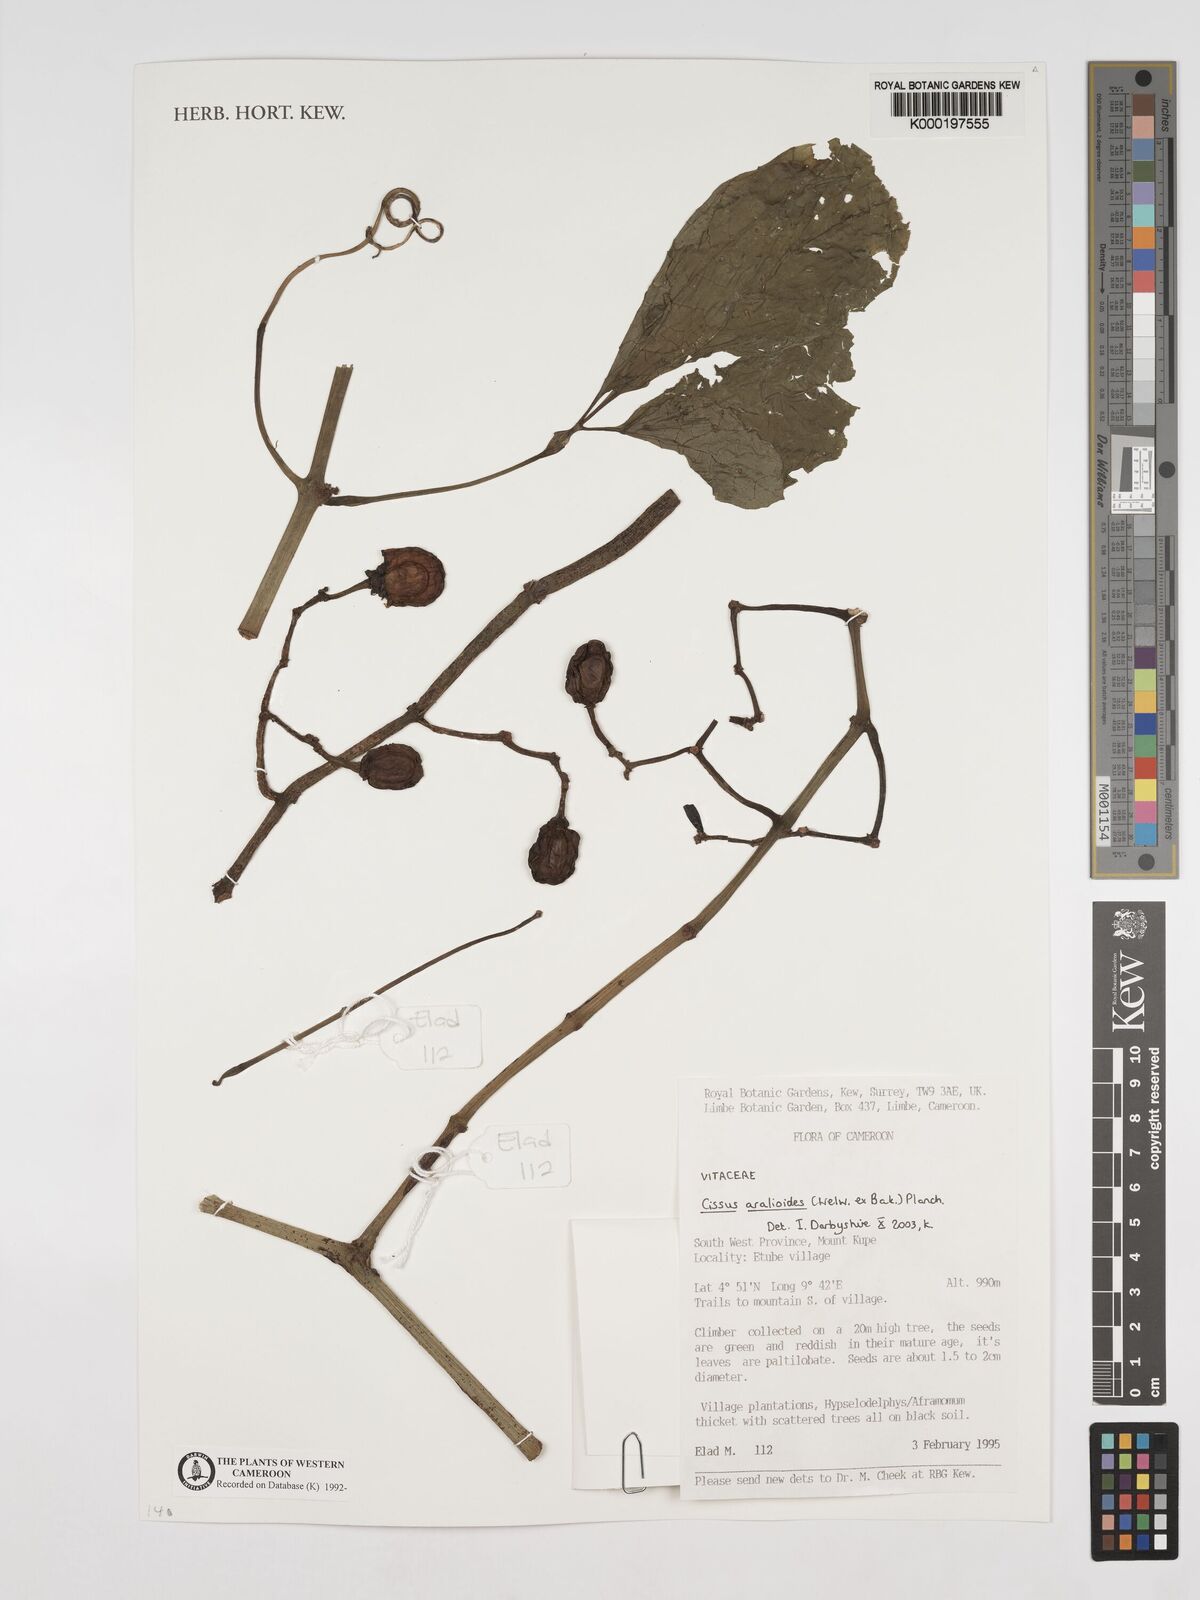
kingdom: Plantae
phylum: Tracheophyta
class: Magnoliopsida
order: Vitales
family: Vitaceae
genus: Cissus
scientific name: Cissus aralioides
